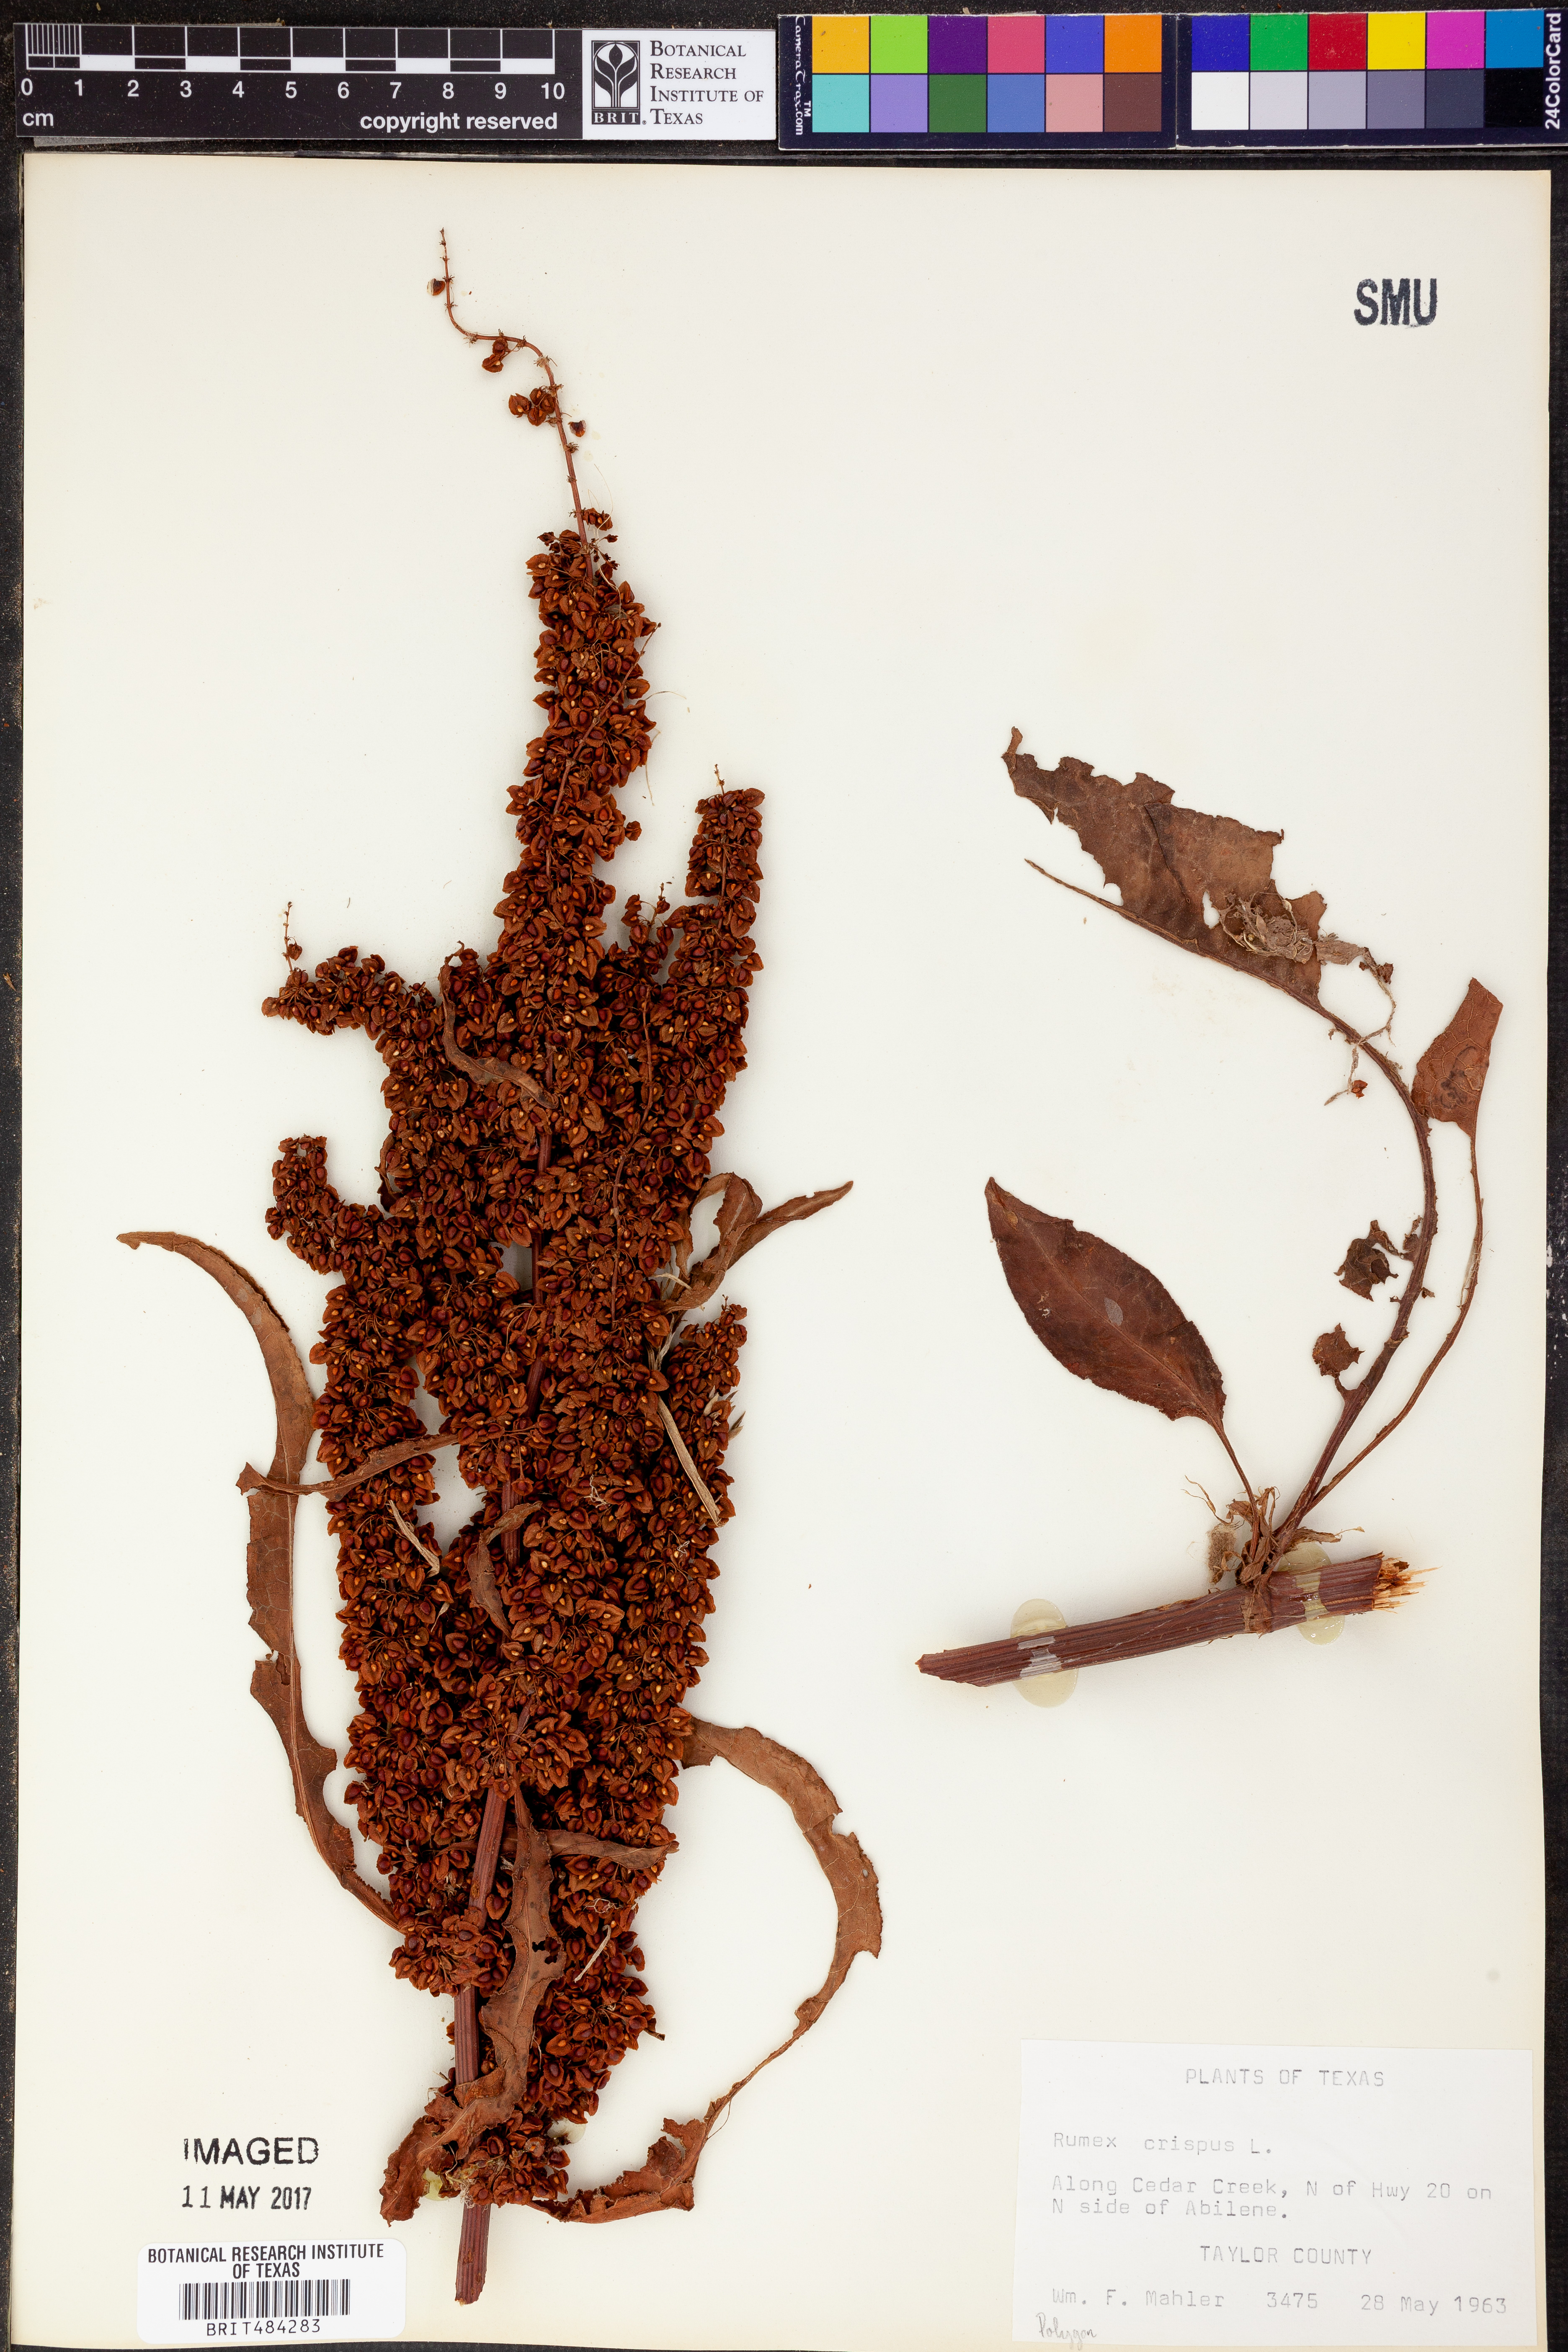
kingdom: Plantae
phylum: Tracheophyta
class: Magnoliopsida
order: Caryophyllales
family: Polygonaceae
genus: Rumex
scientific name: Rumex crispus
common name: Curled dock
